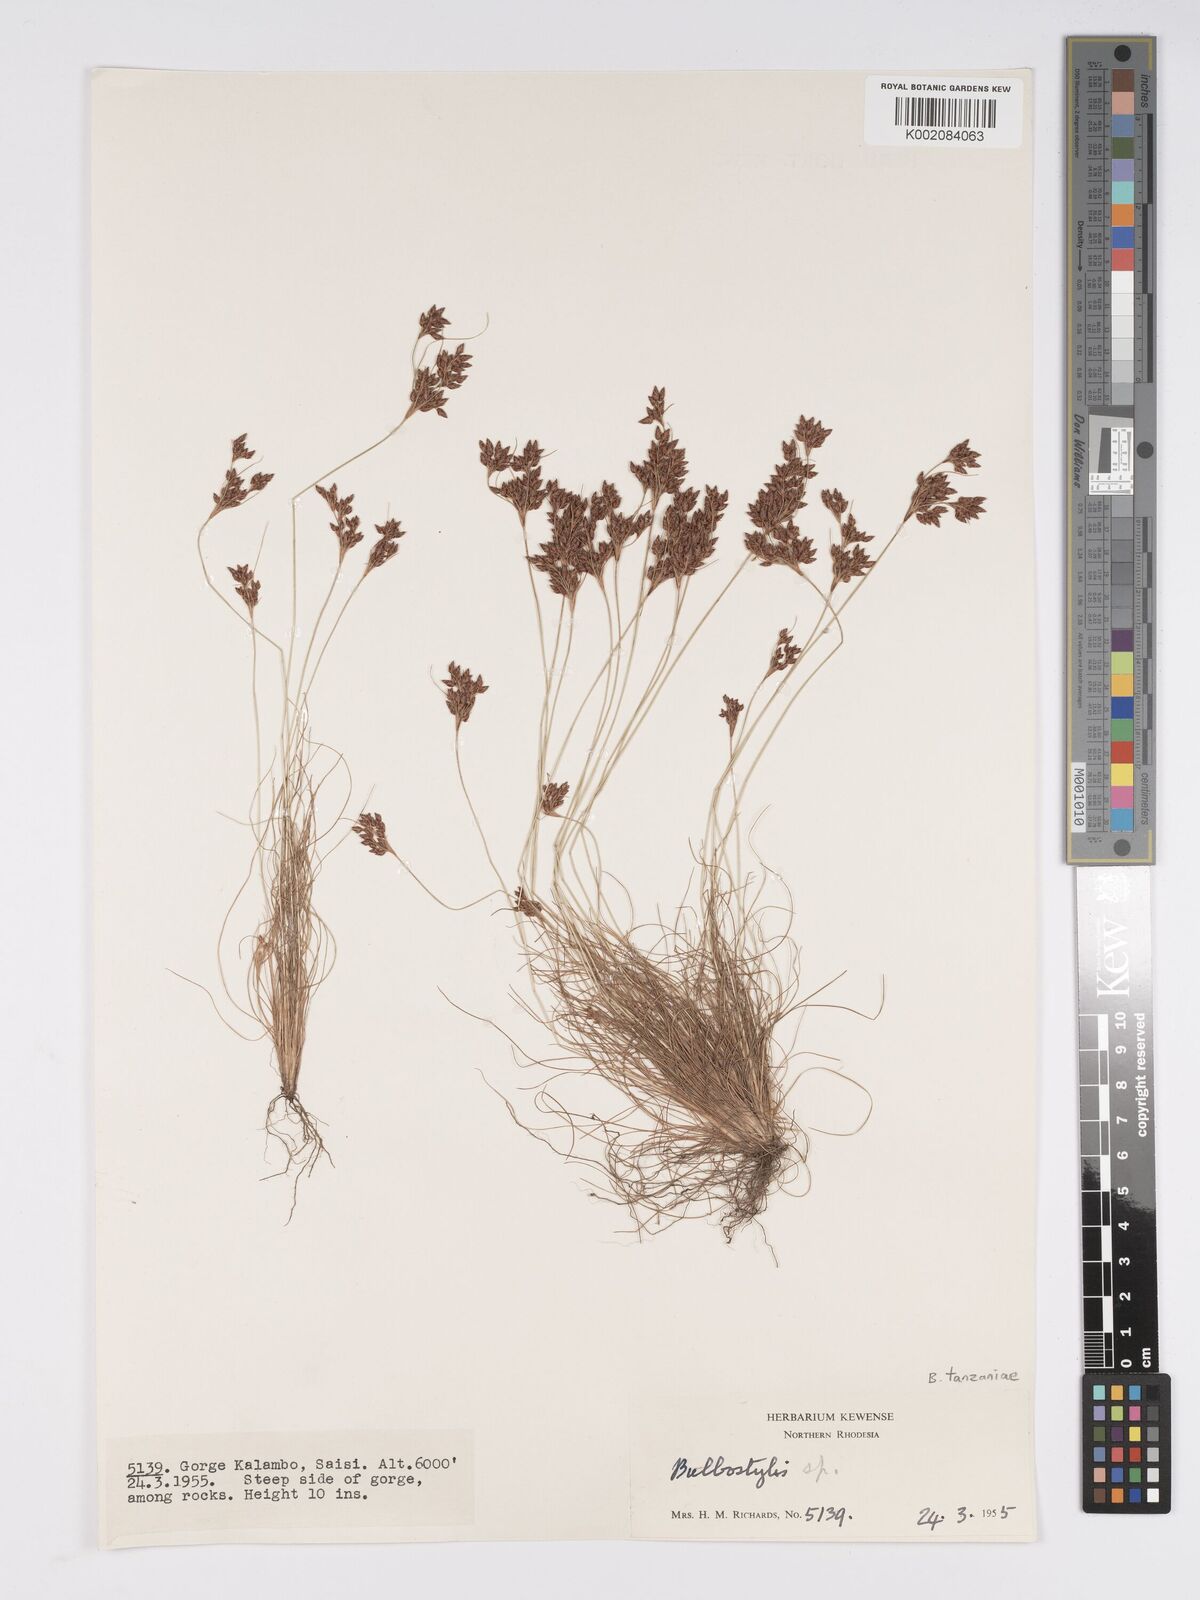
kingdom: Plantae
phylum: Tracheophyta
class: Liliopsida
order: Poales
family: Cyperaceae
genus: Bulbostylis
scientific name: Bulbostylis tanzaniae
